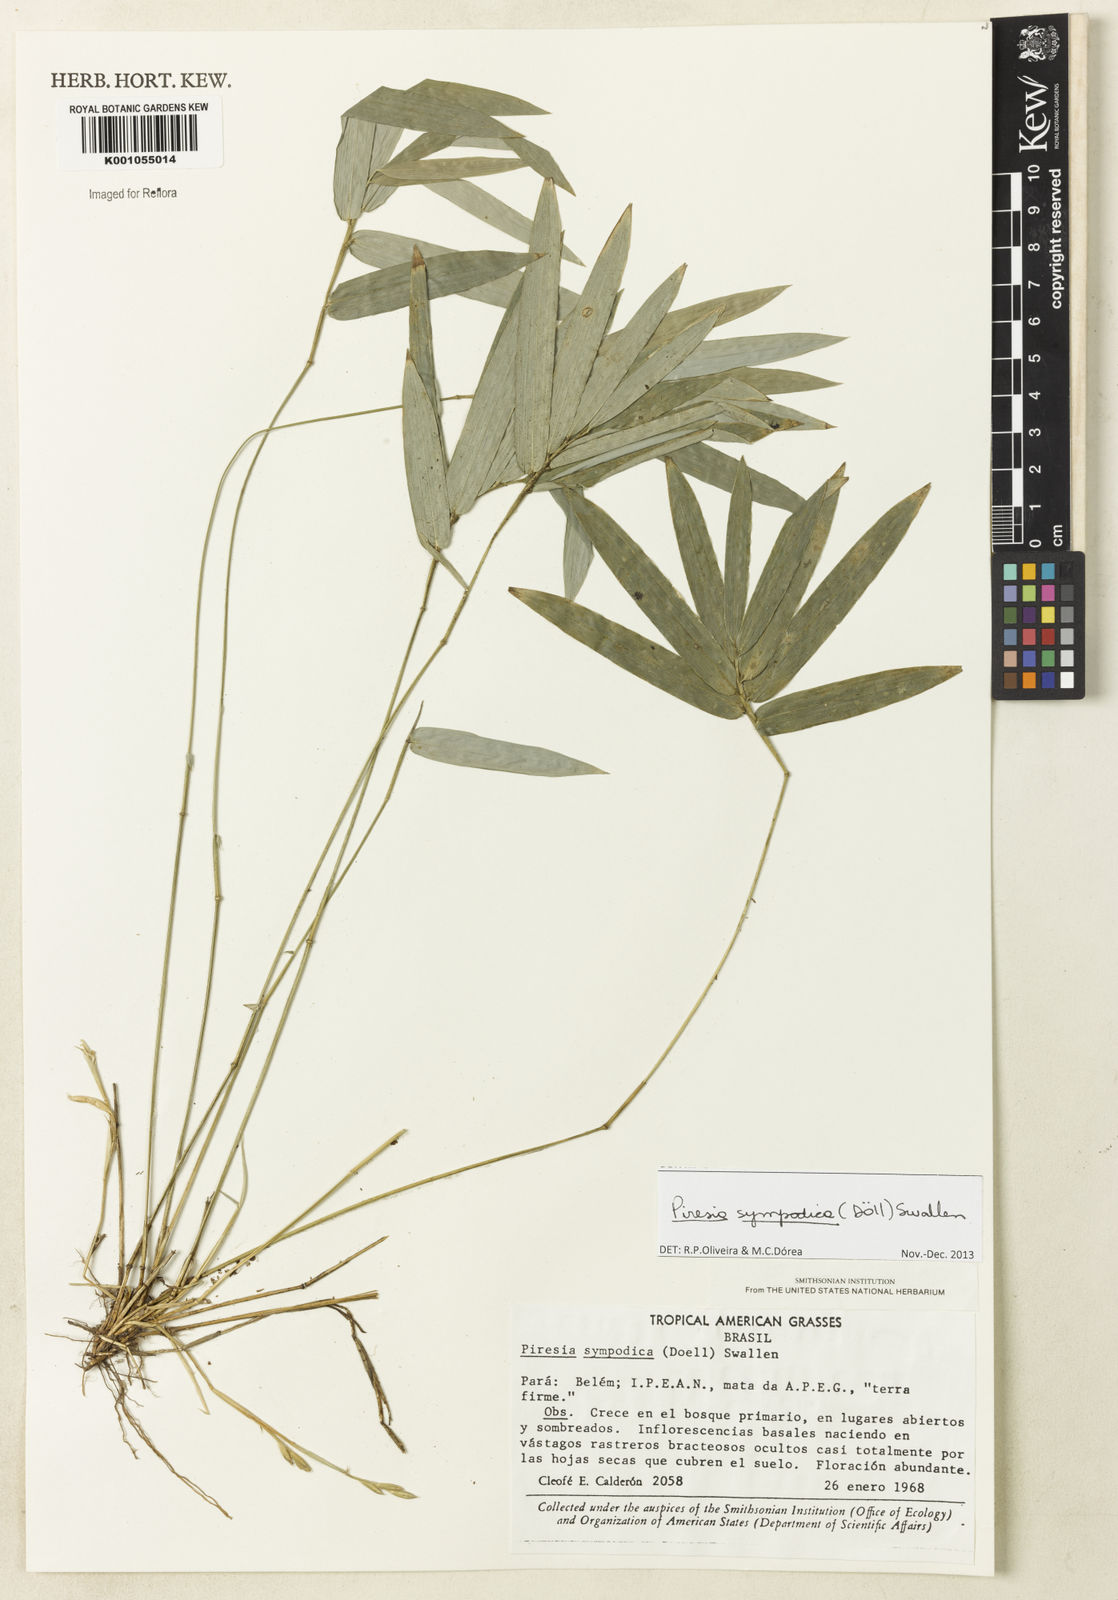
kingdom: Plantae
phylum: Tracheophyta
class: Liliopsida
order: Poales
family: Poaceae
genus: Piresia
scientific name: Piresia
